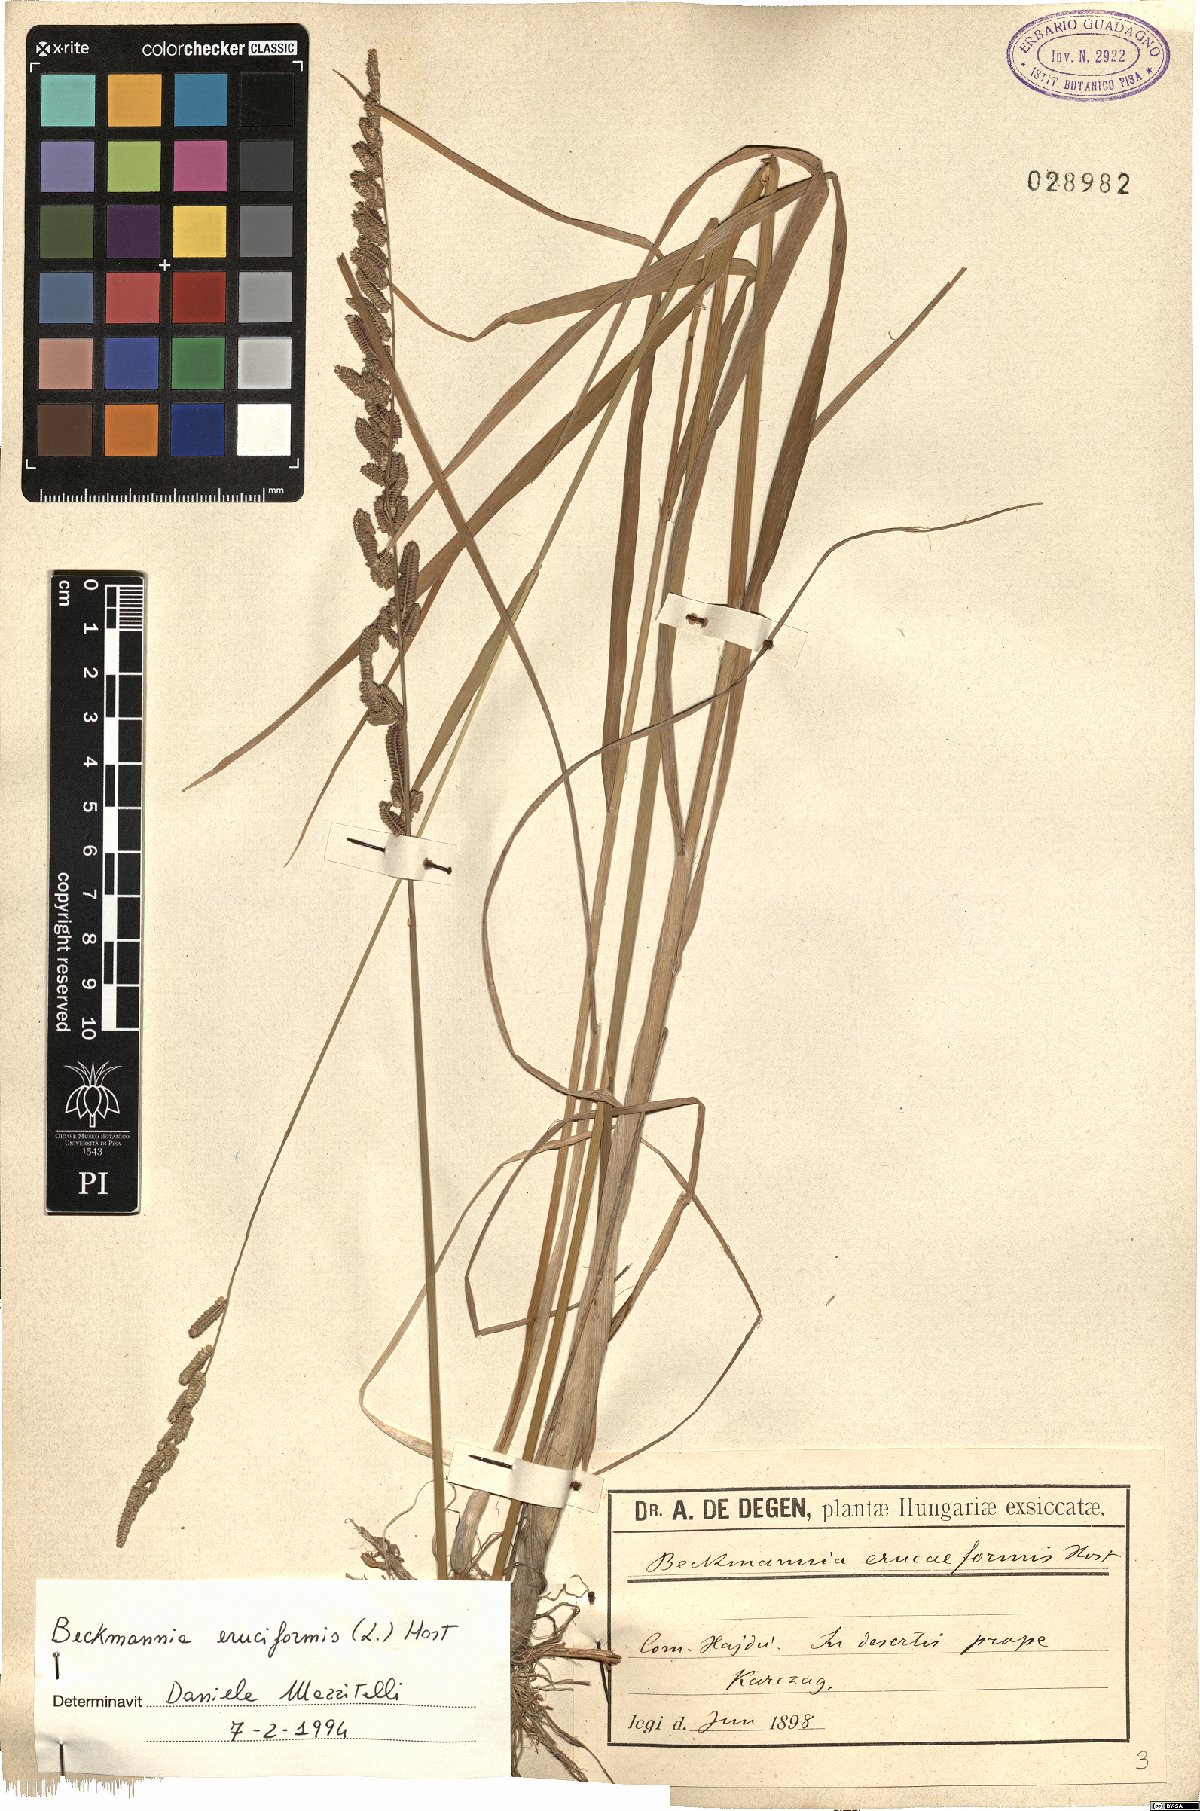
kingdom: Plantae
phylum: Tracheophyta
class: Liliopsida
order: Poales
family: Poaceae
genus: Beckmannia
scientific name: Beckmannia eruciformis
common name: European slough-grass
